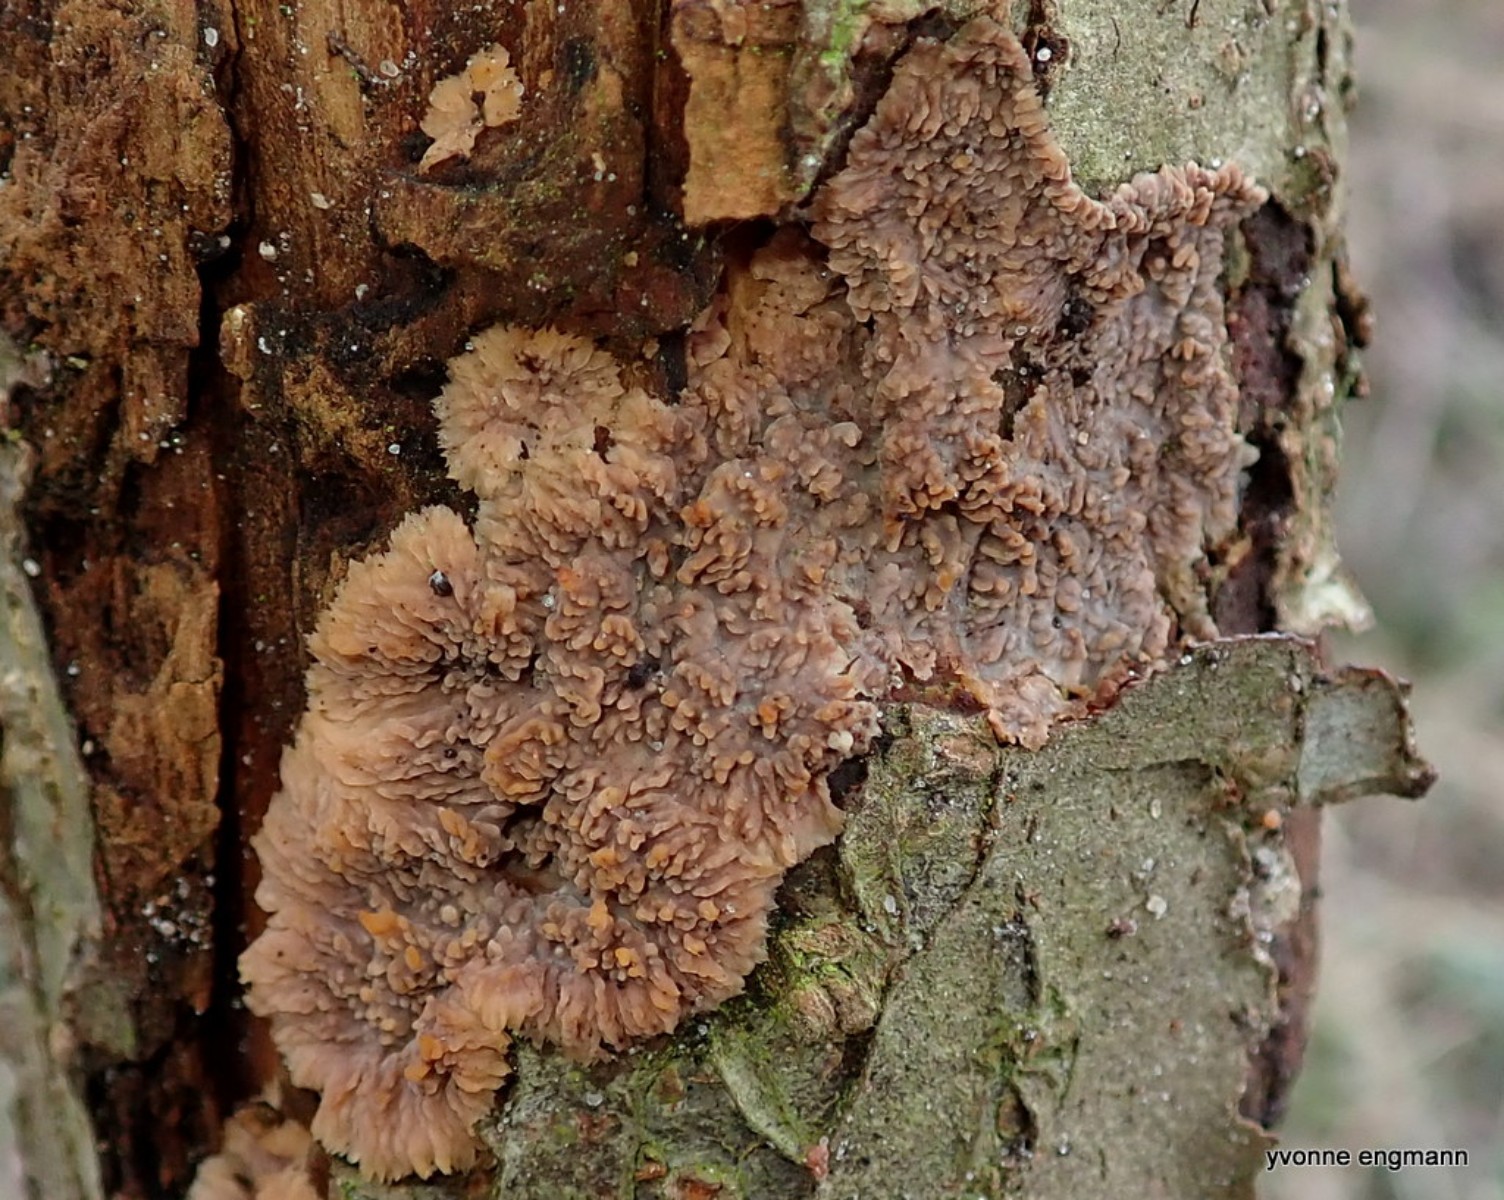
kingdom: Fungi
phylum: Basidiomycota
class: Agaricomycetes
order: Polyporales
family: Meruliaceae
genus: Phlebia
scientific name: Phlebia radiata
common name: stråle-åresvamp
